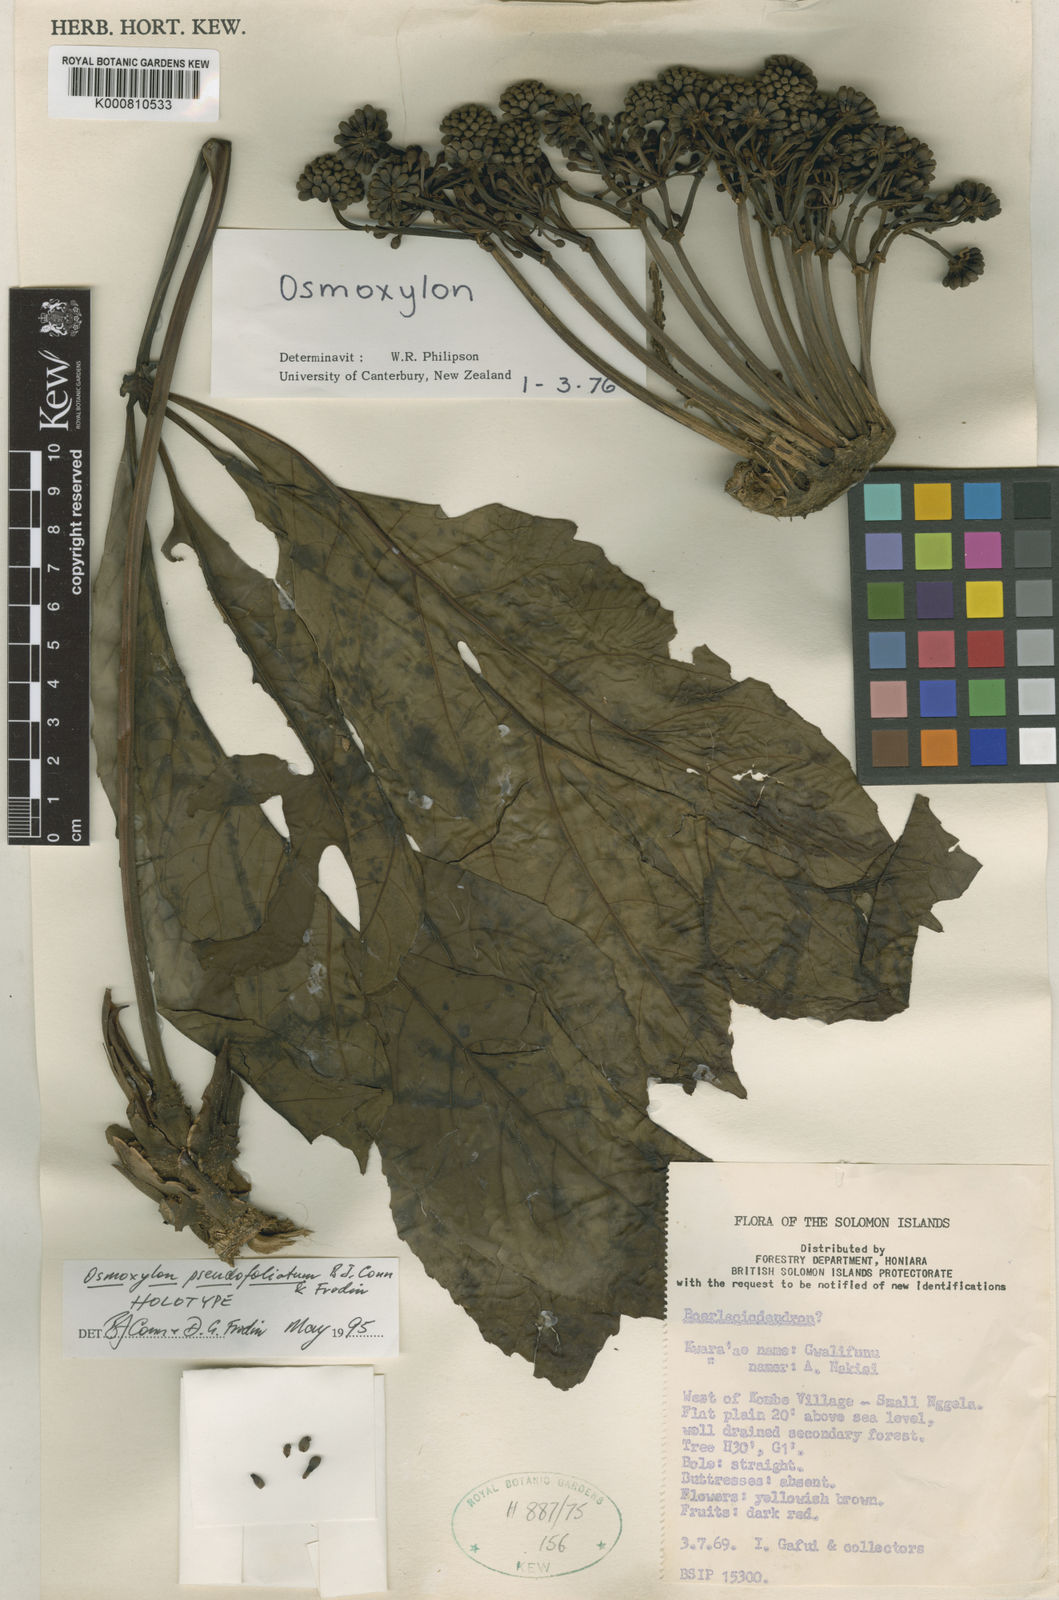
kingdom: Plantae
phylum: Tracheophyta
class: Magnoliopsida
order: Apiales
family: Araliaceae
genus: Osmoxylon
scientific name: Osmoxylon pseudofoliatum
